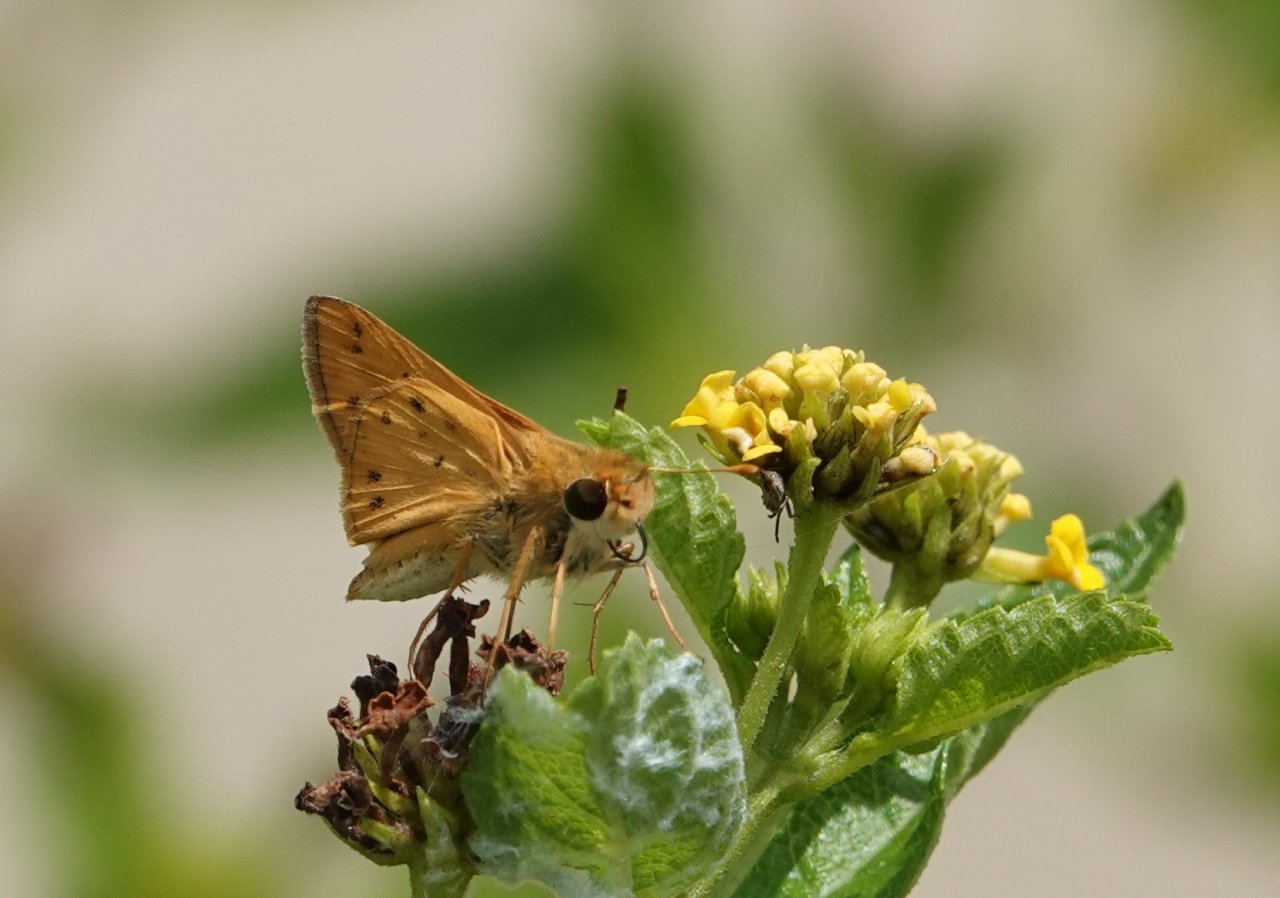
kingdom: Animalia
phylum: Arthropoda
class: Insecta
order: Lepidoptera
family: Hesperiidae
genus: Hylephila
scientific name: Hylephila phyleus
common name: Fiery Skipper
